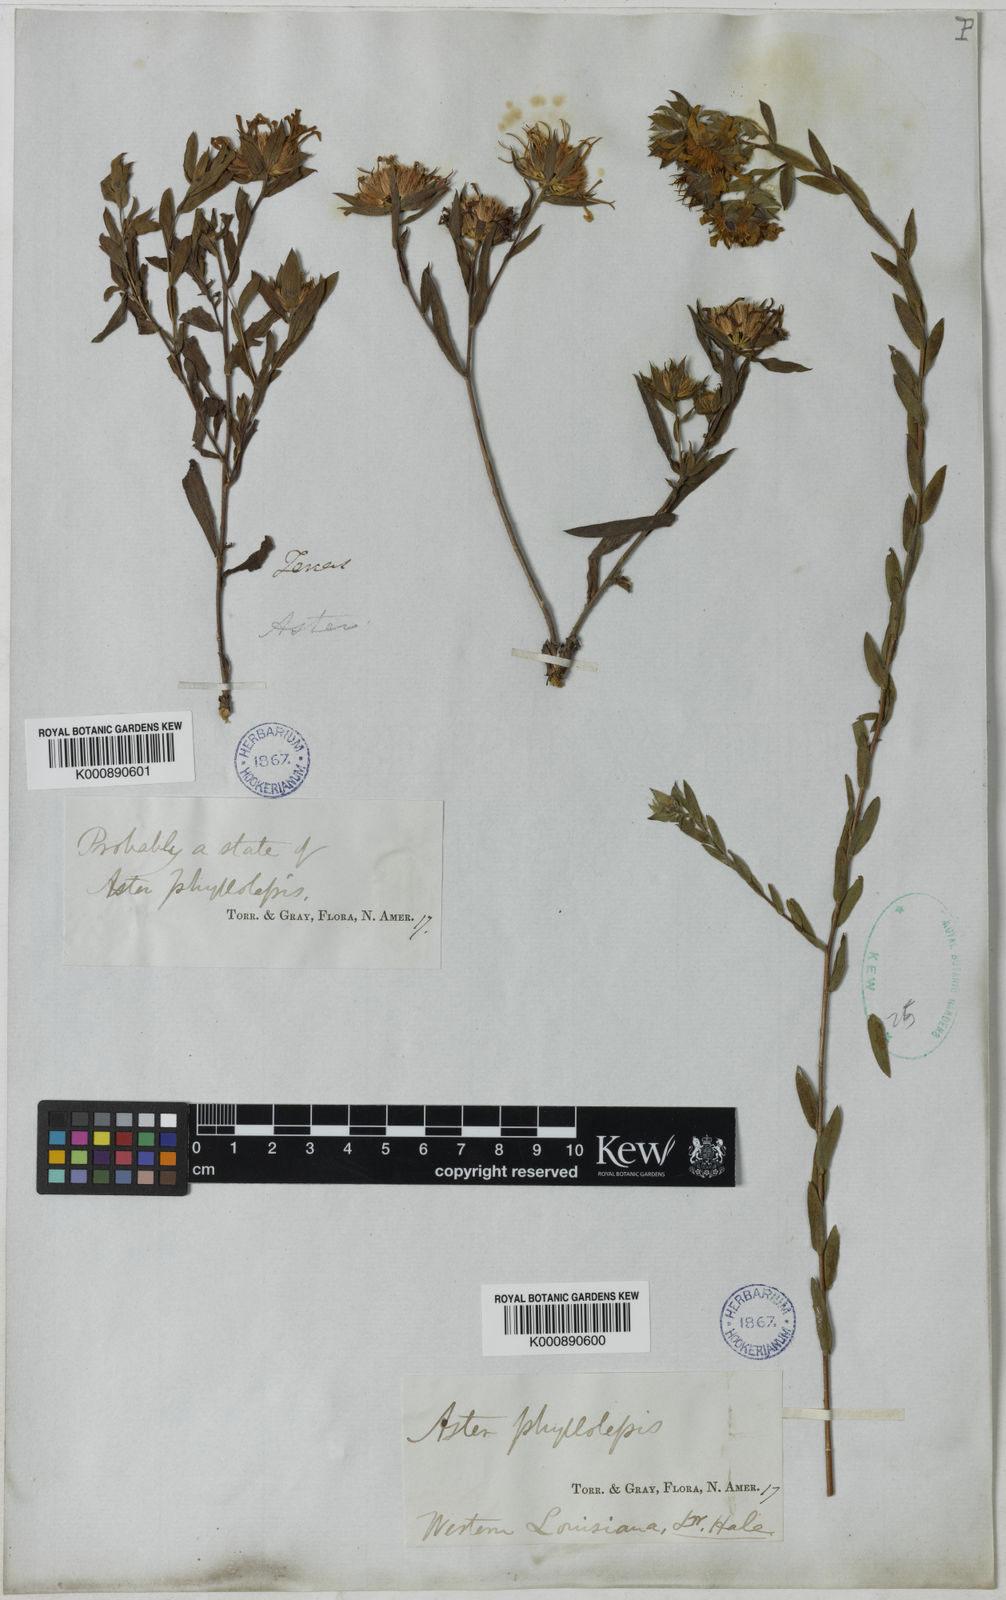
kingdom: Plantae
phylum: Tracheophyta
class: Magnoliopsida
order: Asterales
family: Asteraceae
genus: Symphyotrichum
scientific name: Symphyotrichum pratense
